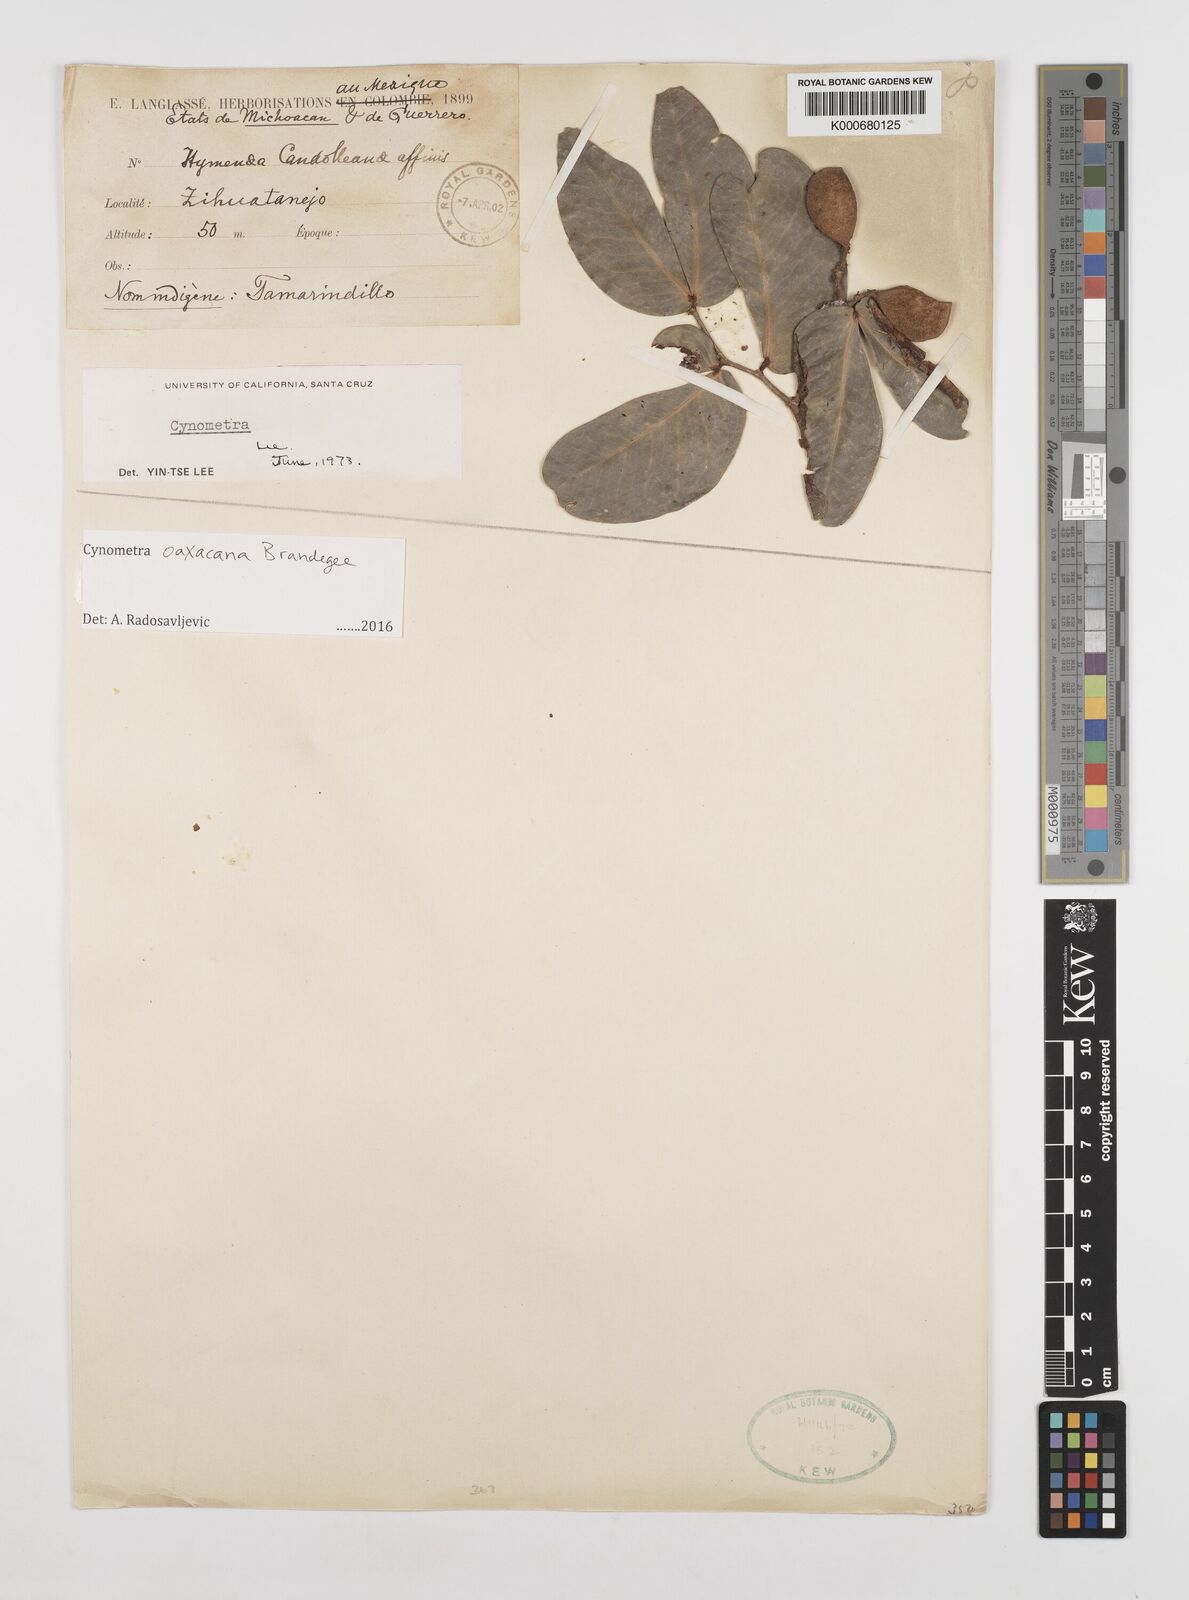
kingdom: Plantae
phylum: Tracheophyta
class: Magnoliopsida
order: Fabales
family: Fabaceae
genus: Cynometra
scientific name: Cynometra oaxacana
